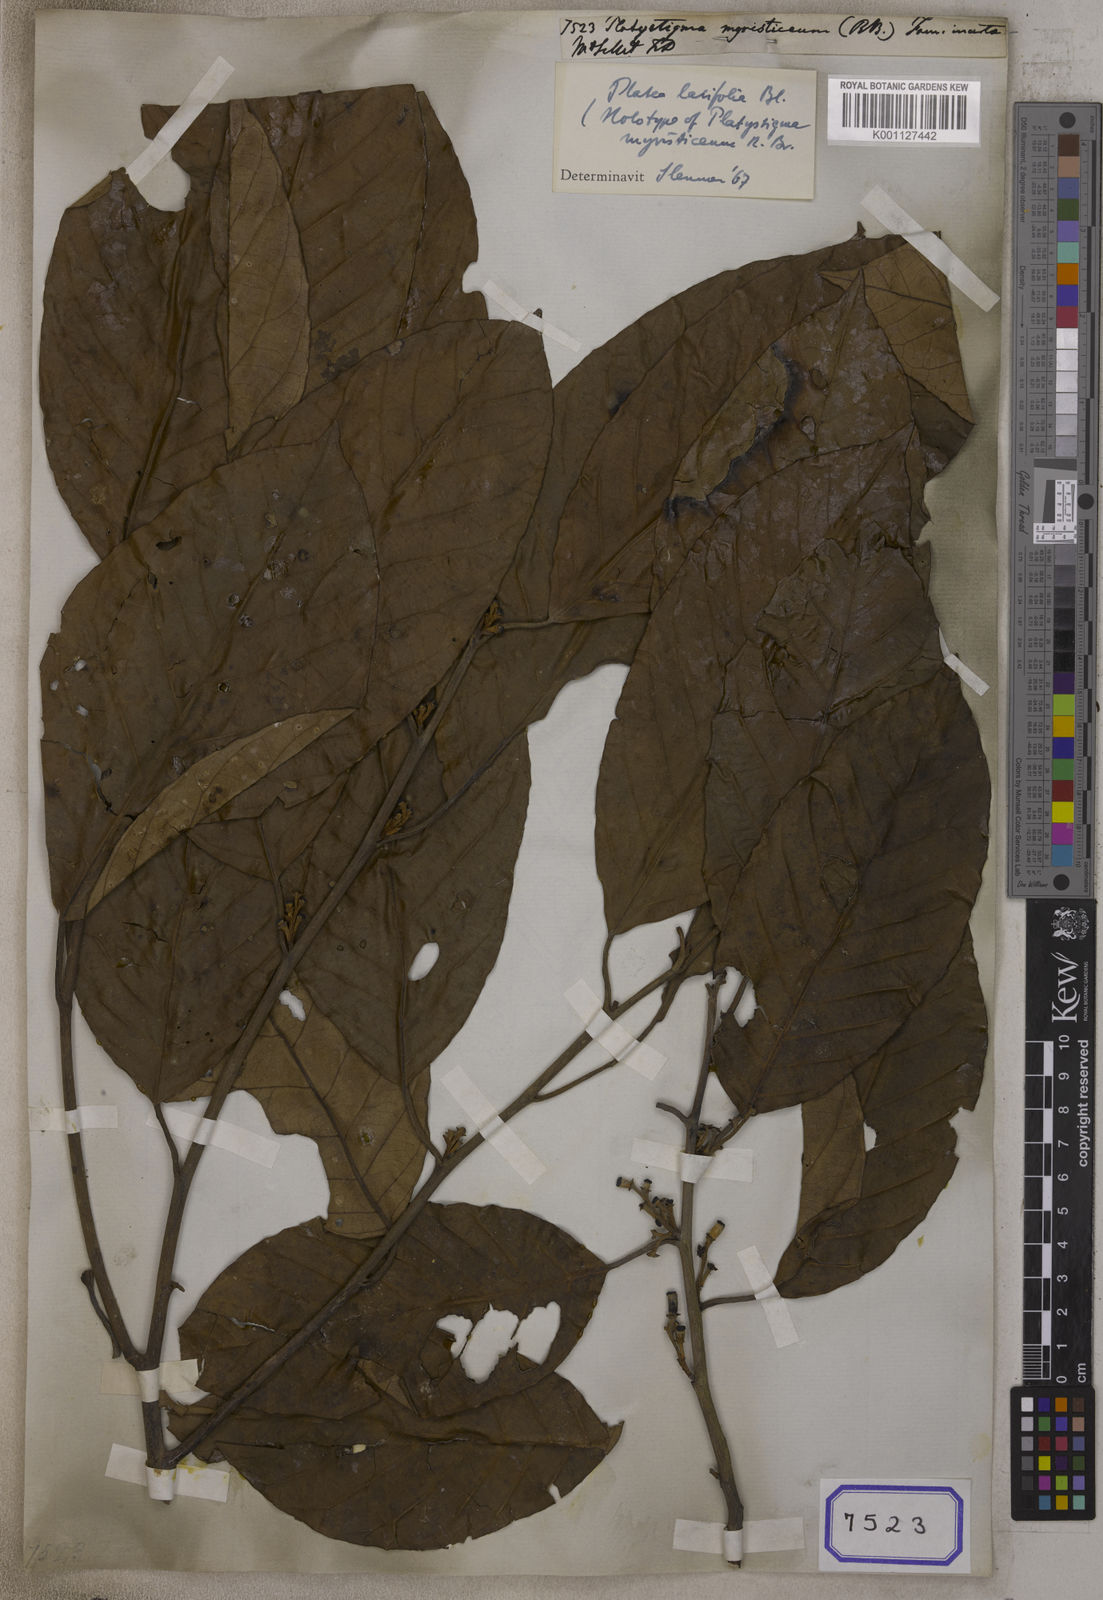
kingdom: Plantae
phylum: Tracheophyta
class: Magnoliopsida
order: Ranunculales
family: Papaveraceae
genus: Platystigma
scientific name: Platystigma
